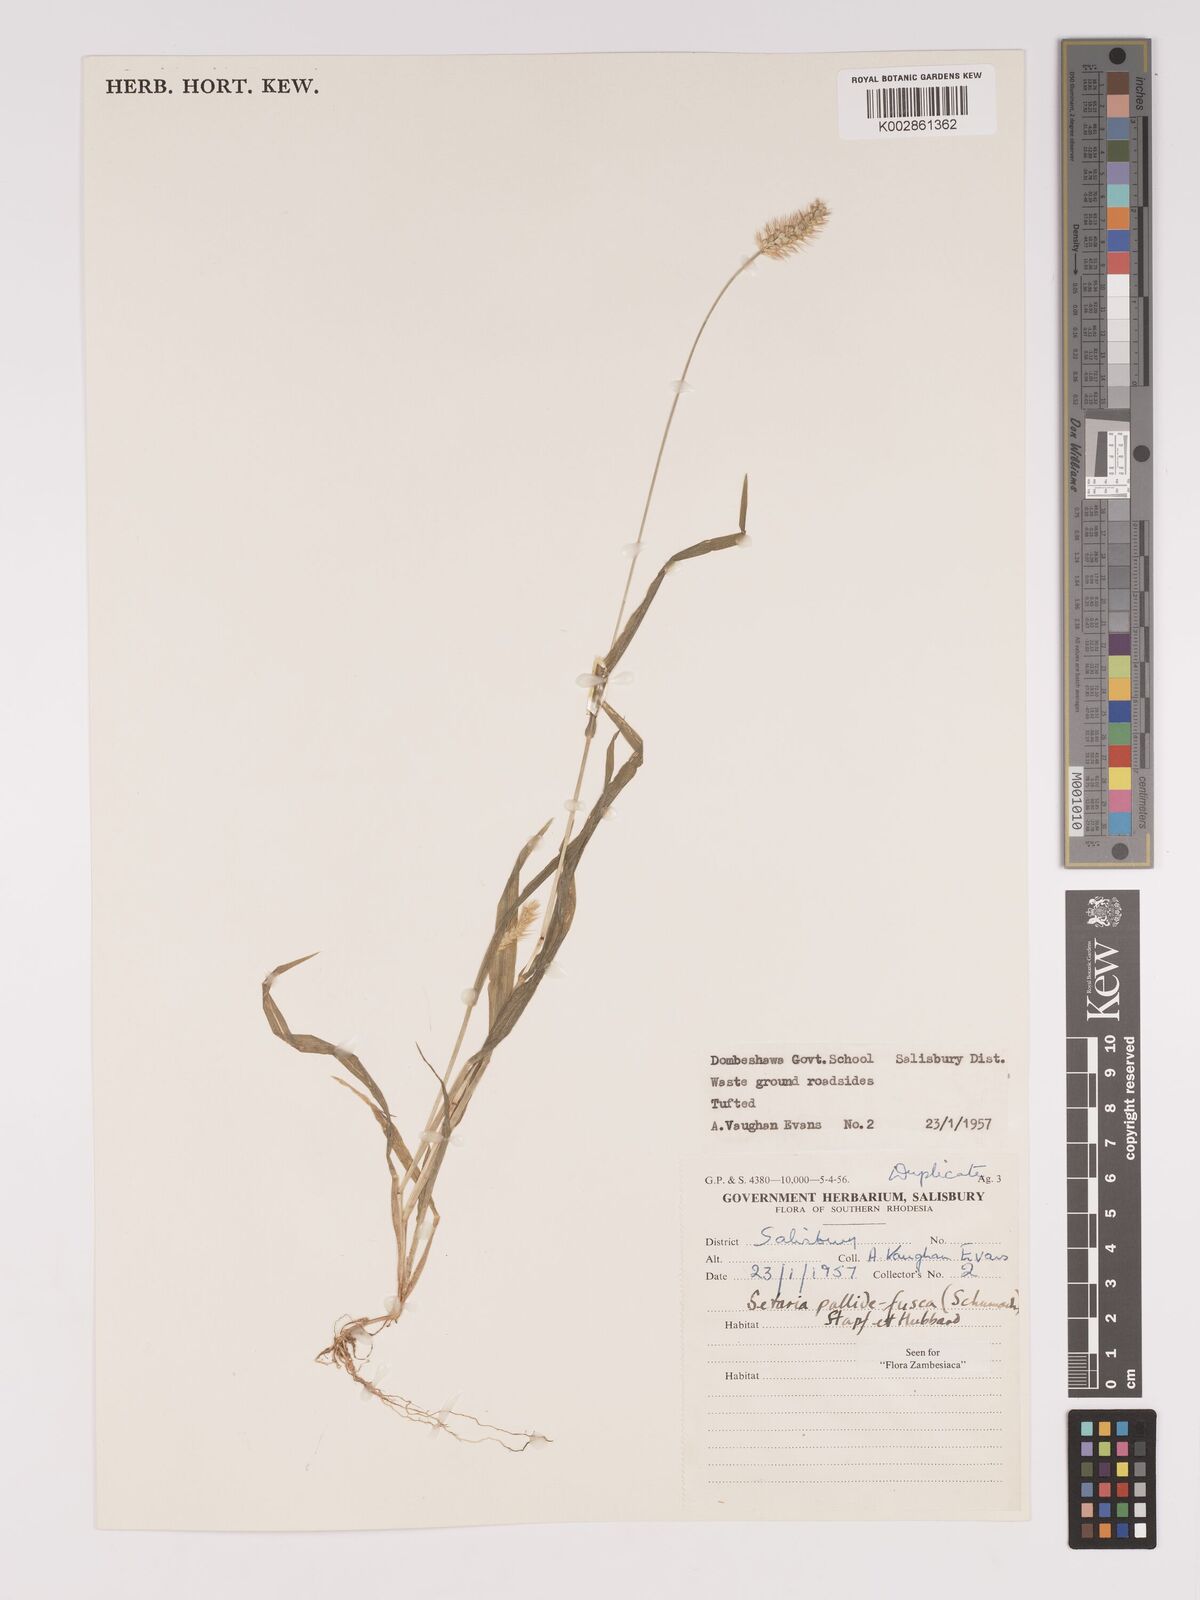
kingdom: Plantae
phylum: Tracheophyta
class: Liliopsida
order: Poales
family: Poaceae
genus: Setaria
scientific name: Setaria pumila
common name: Yellow bristle-grass
